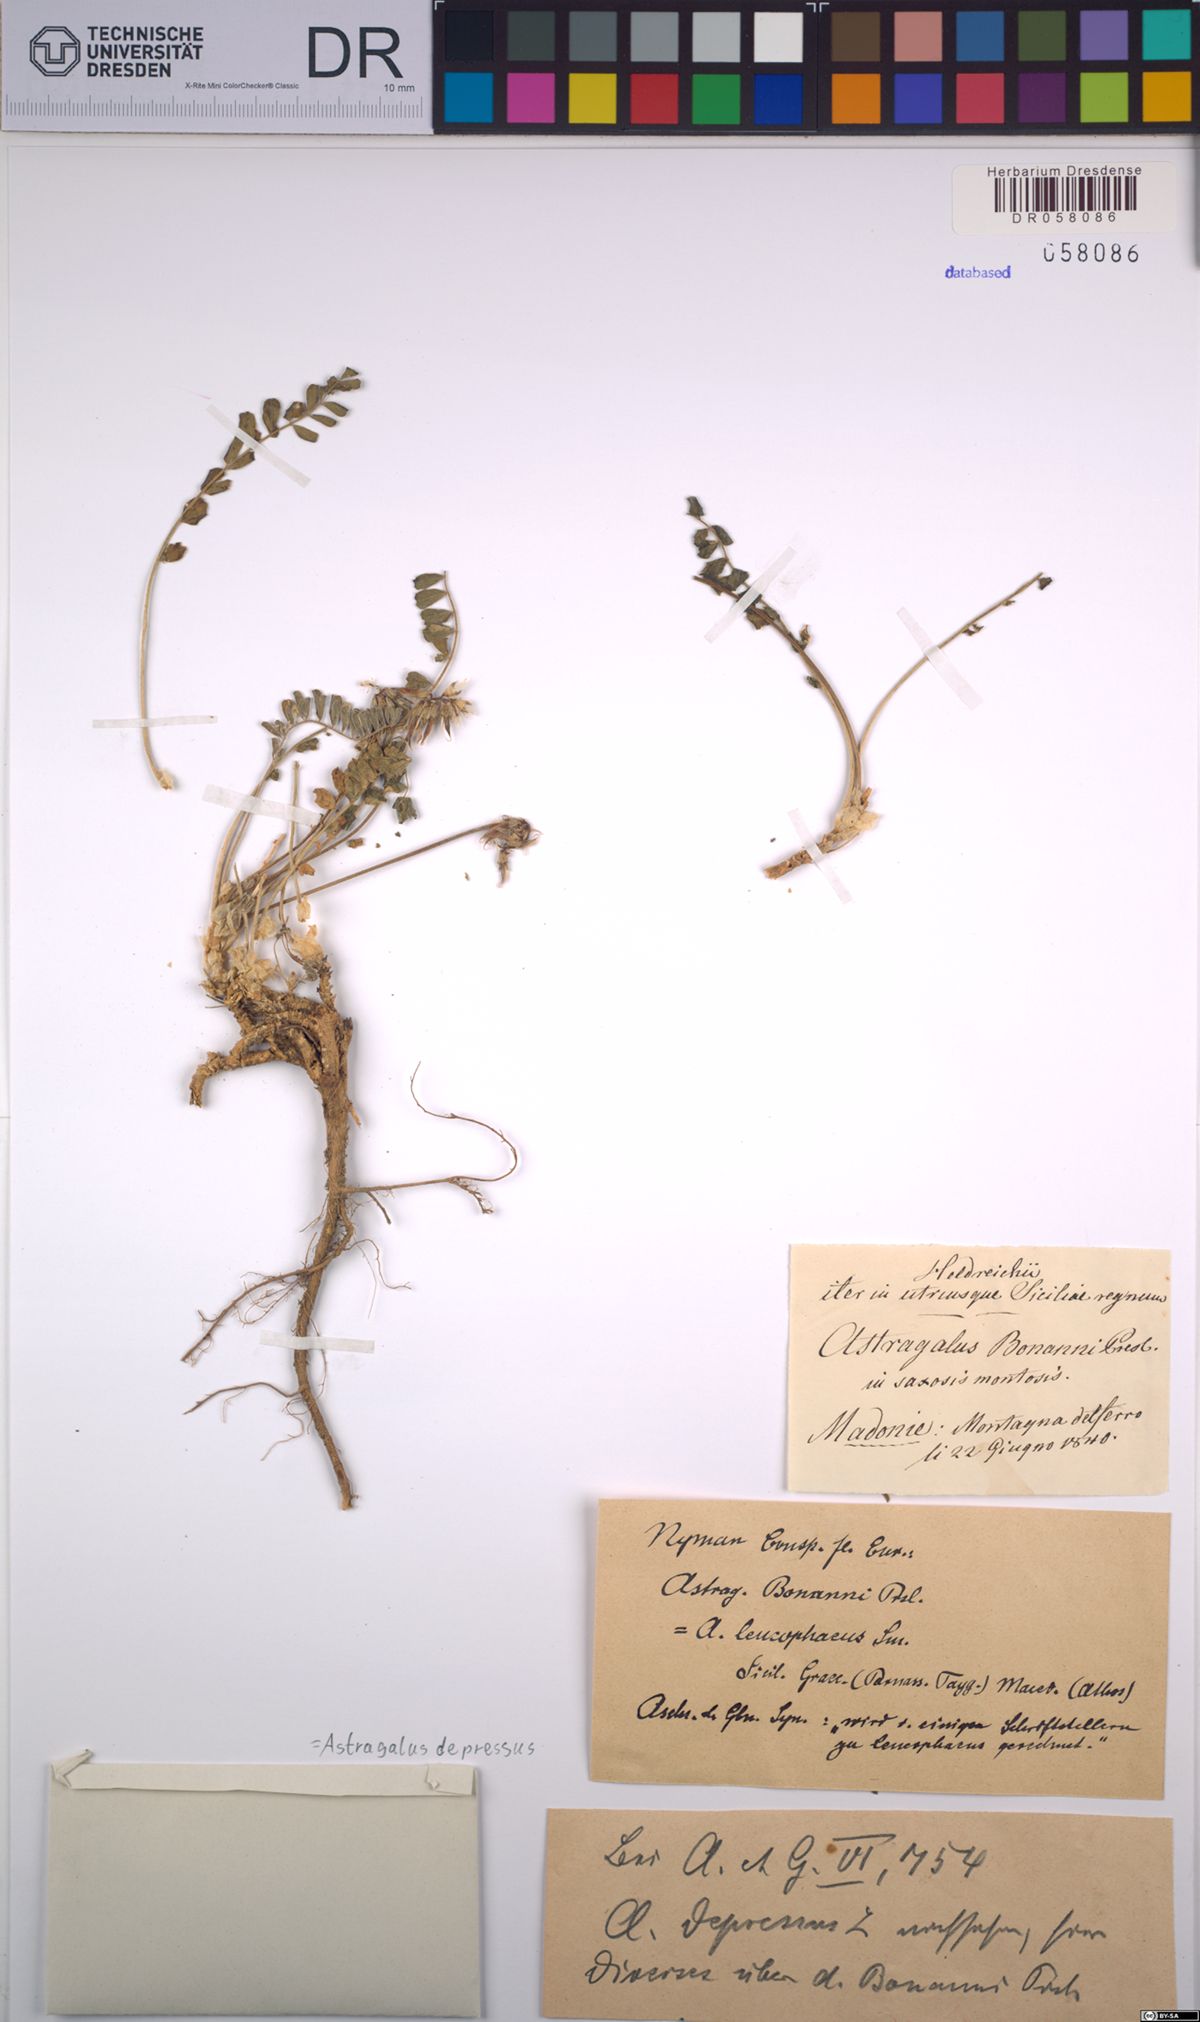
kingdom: Plantae
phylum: Tracheophyta
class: Magnoliopsida
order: Fabales
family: Fabaceae
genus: Astragalus
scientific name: Astragalus depressus
